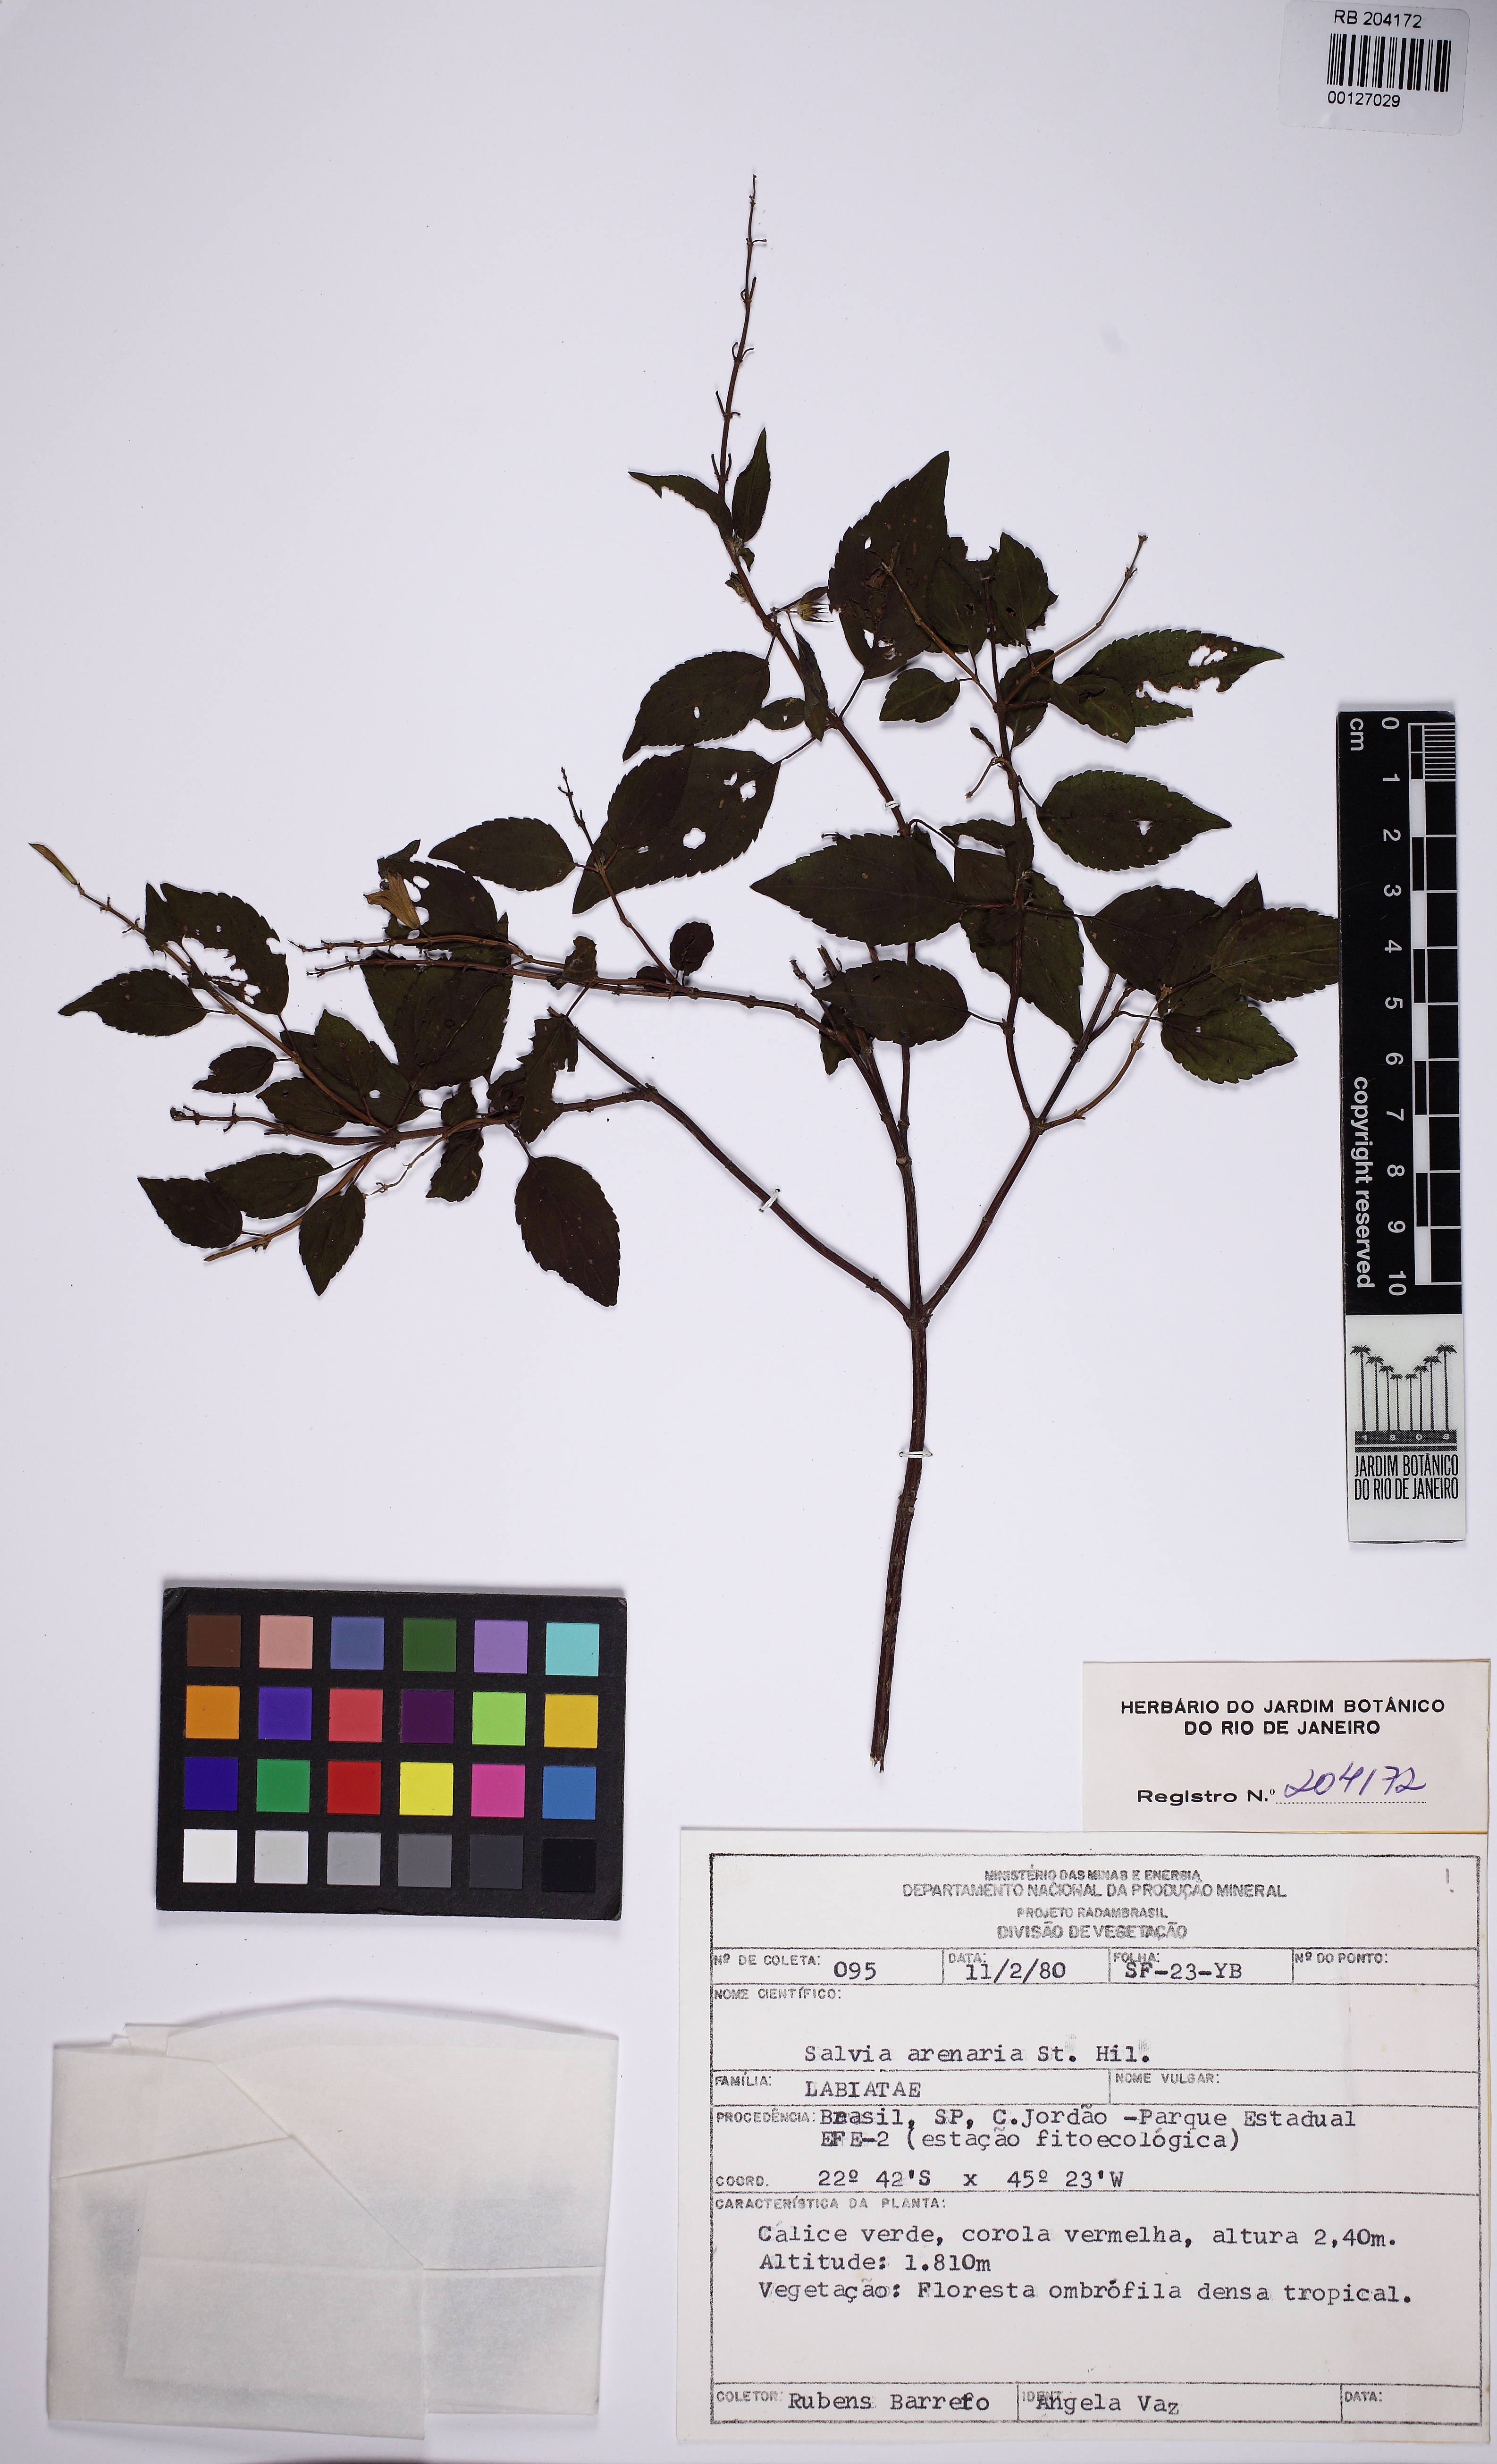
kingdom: Plantae
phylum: Tracheophyta
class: Magnoliopsida
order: Lamiales
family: Lamiaceae
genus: Salvia
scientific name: Salvia arenaria
